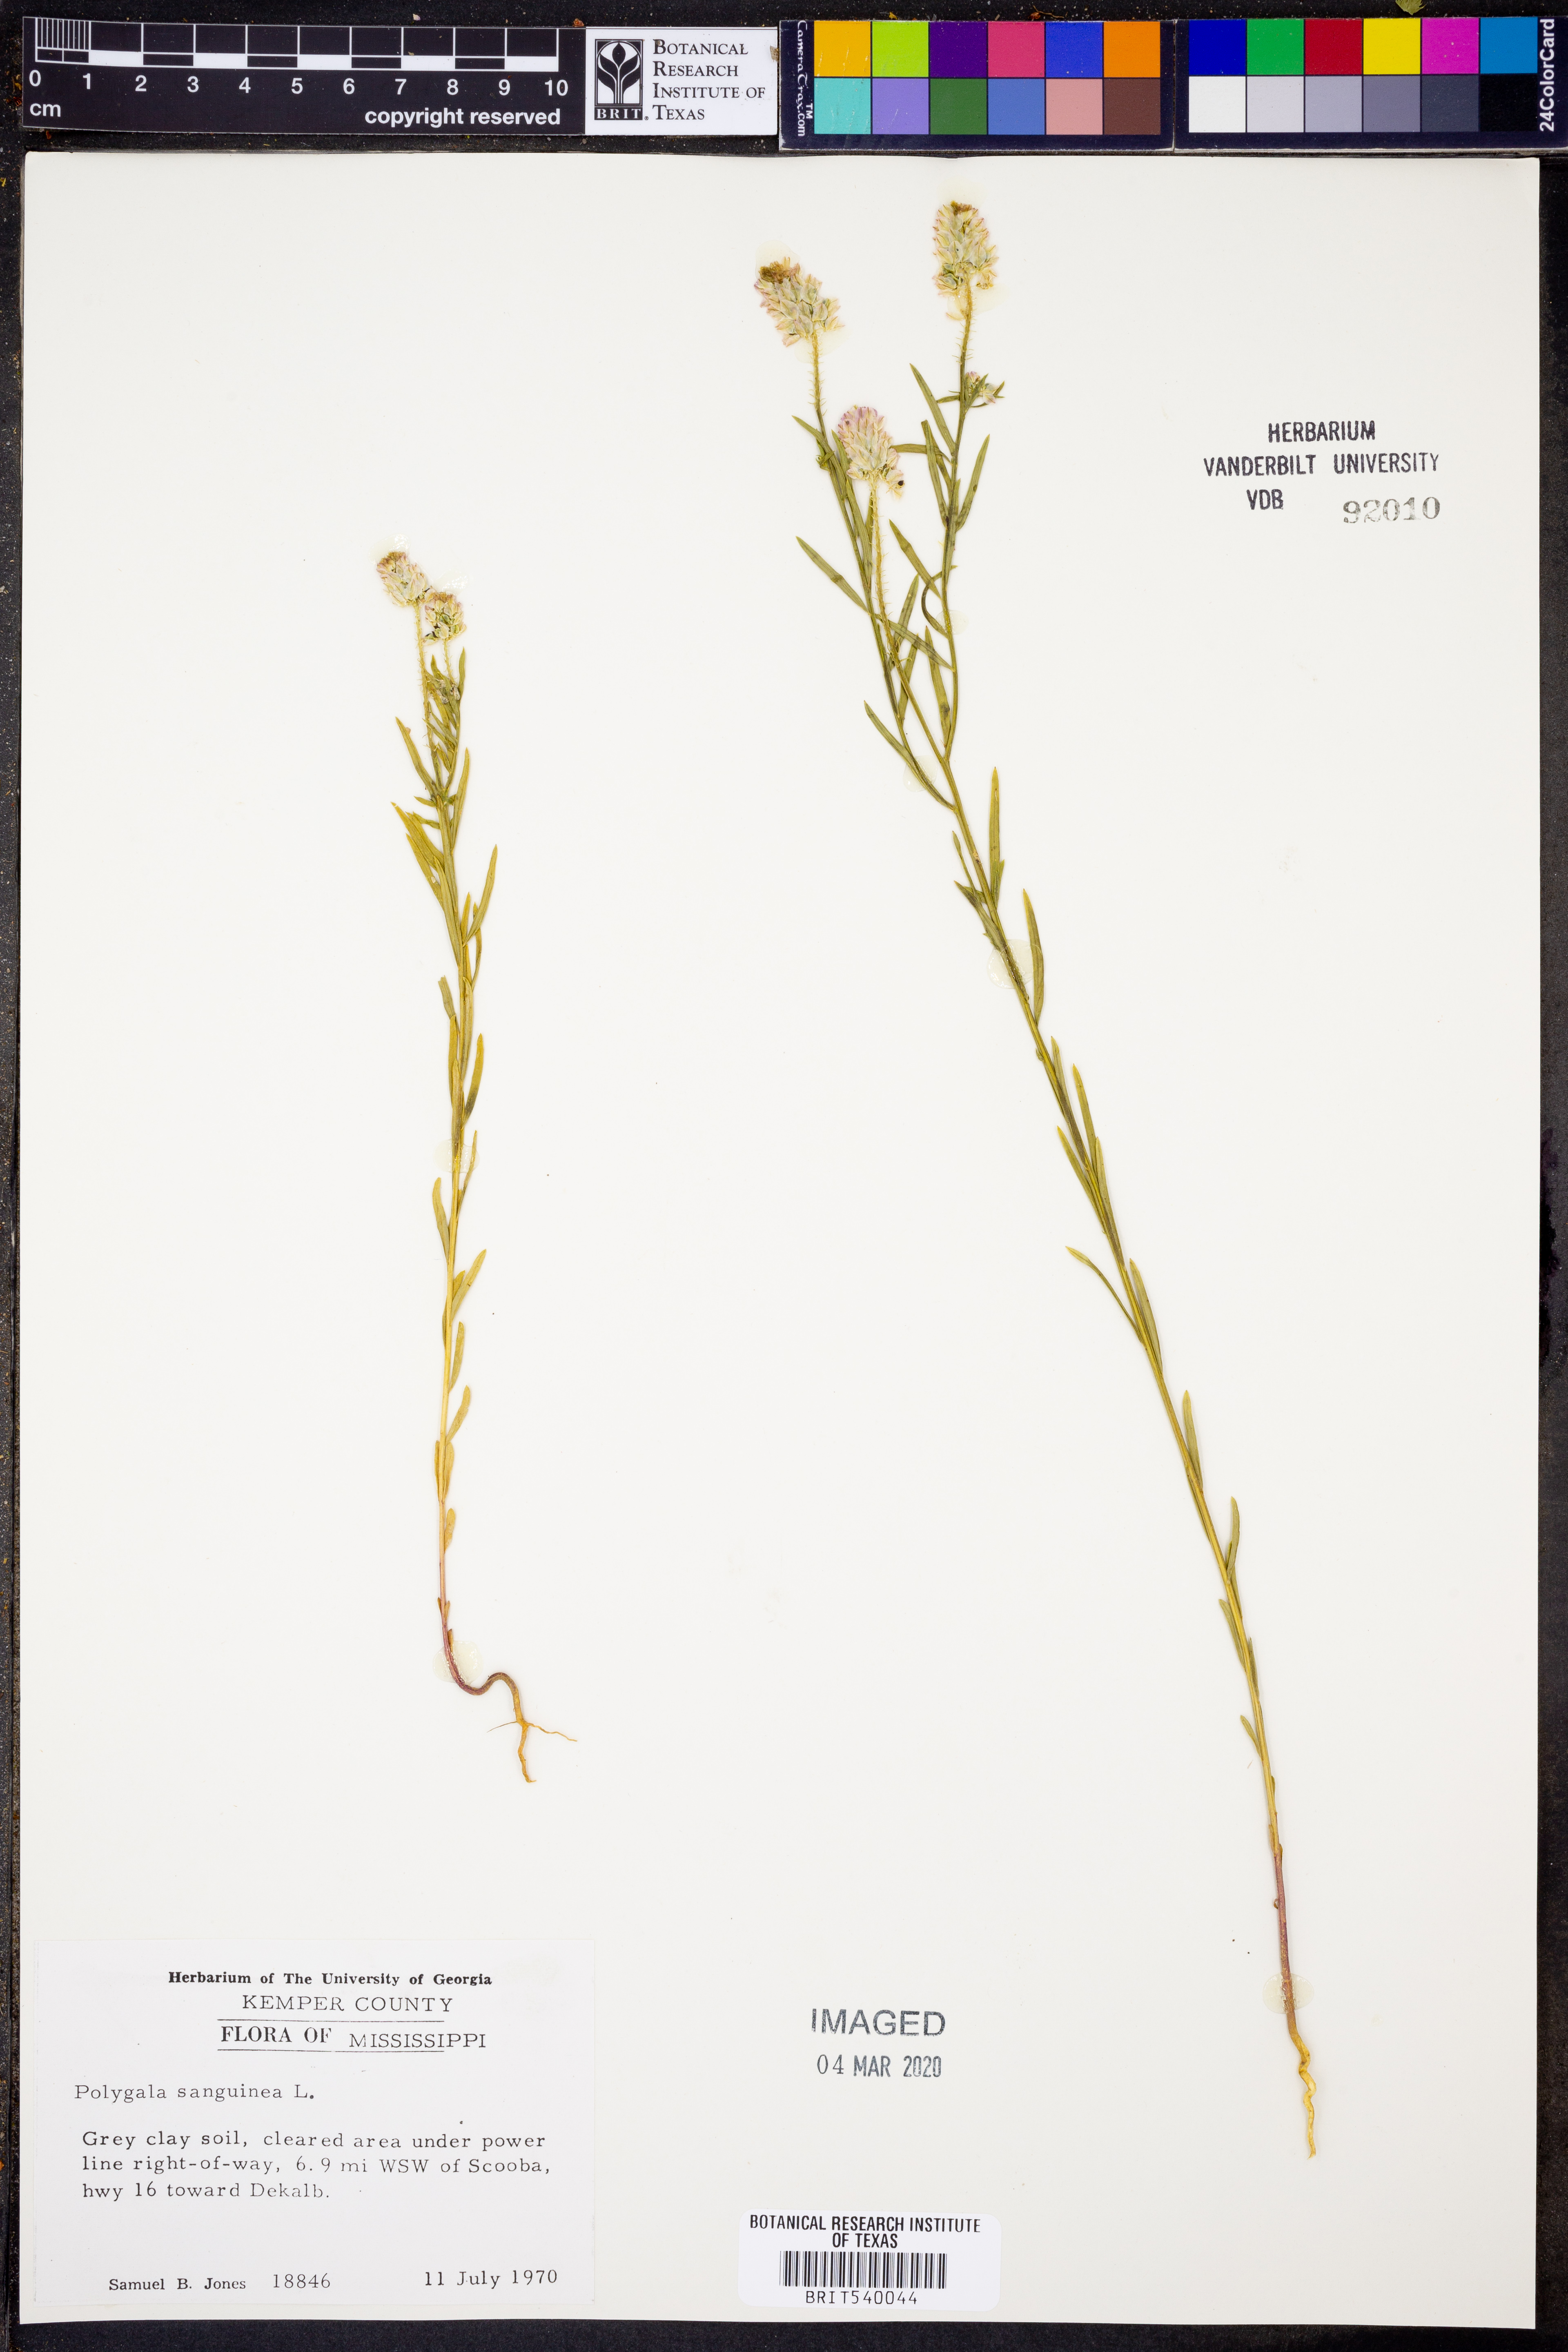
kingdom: Plantae
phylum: Tracheophyta
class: Magnoliopsida
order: Fabales
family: Polygalaceae
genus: Polygala
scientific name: Polygala sanguinea
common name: Blood milkwort
